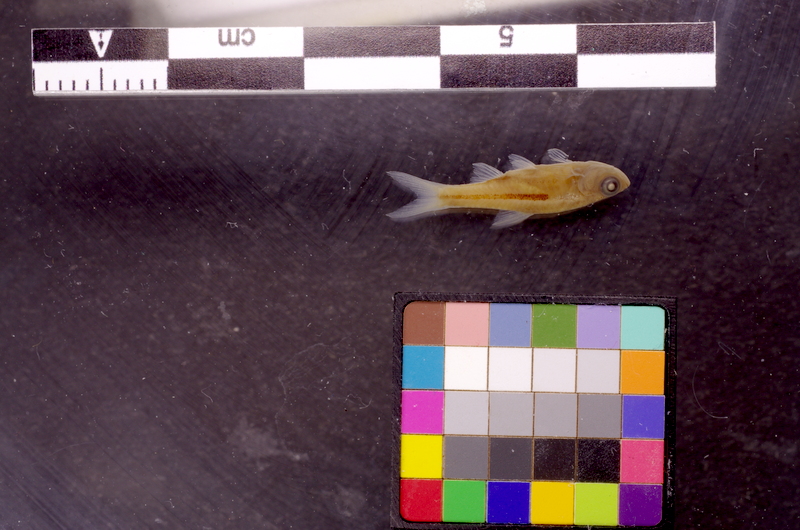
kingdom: Animalia
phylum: Chordata
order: Cypriniformes
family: Cyprinidae
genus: Trigonostigma
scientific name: Trigonostigma somphongsi
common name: Somphongs’s rasbora
